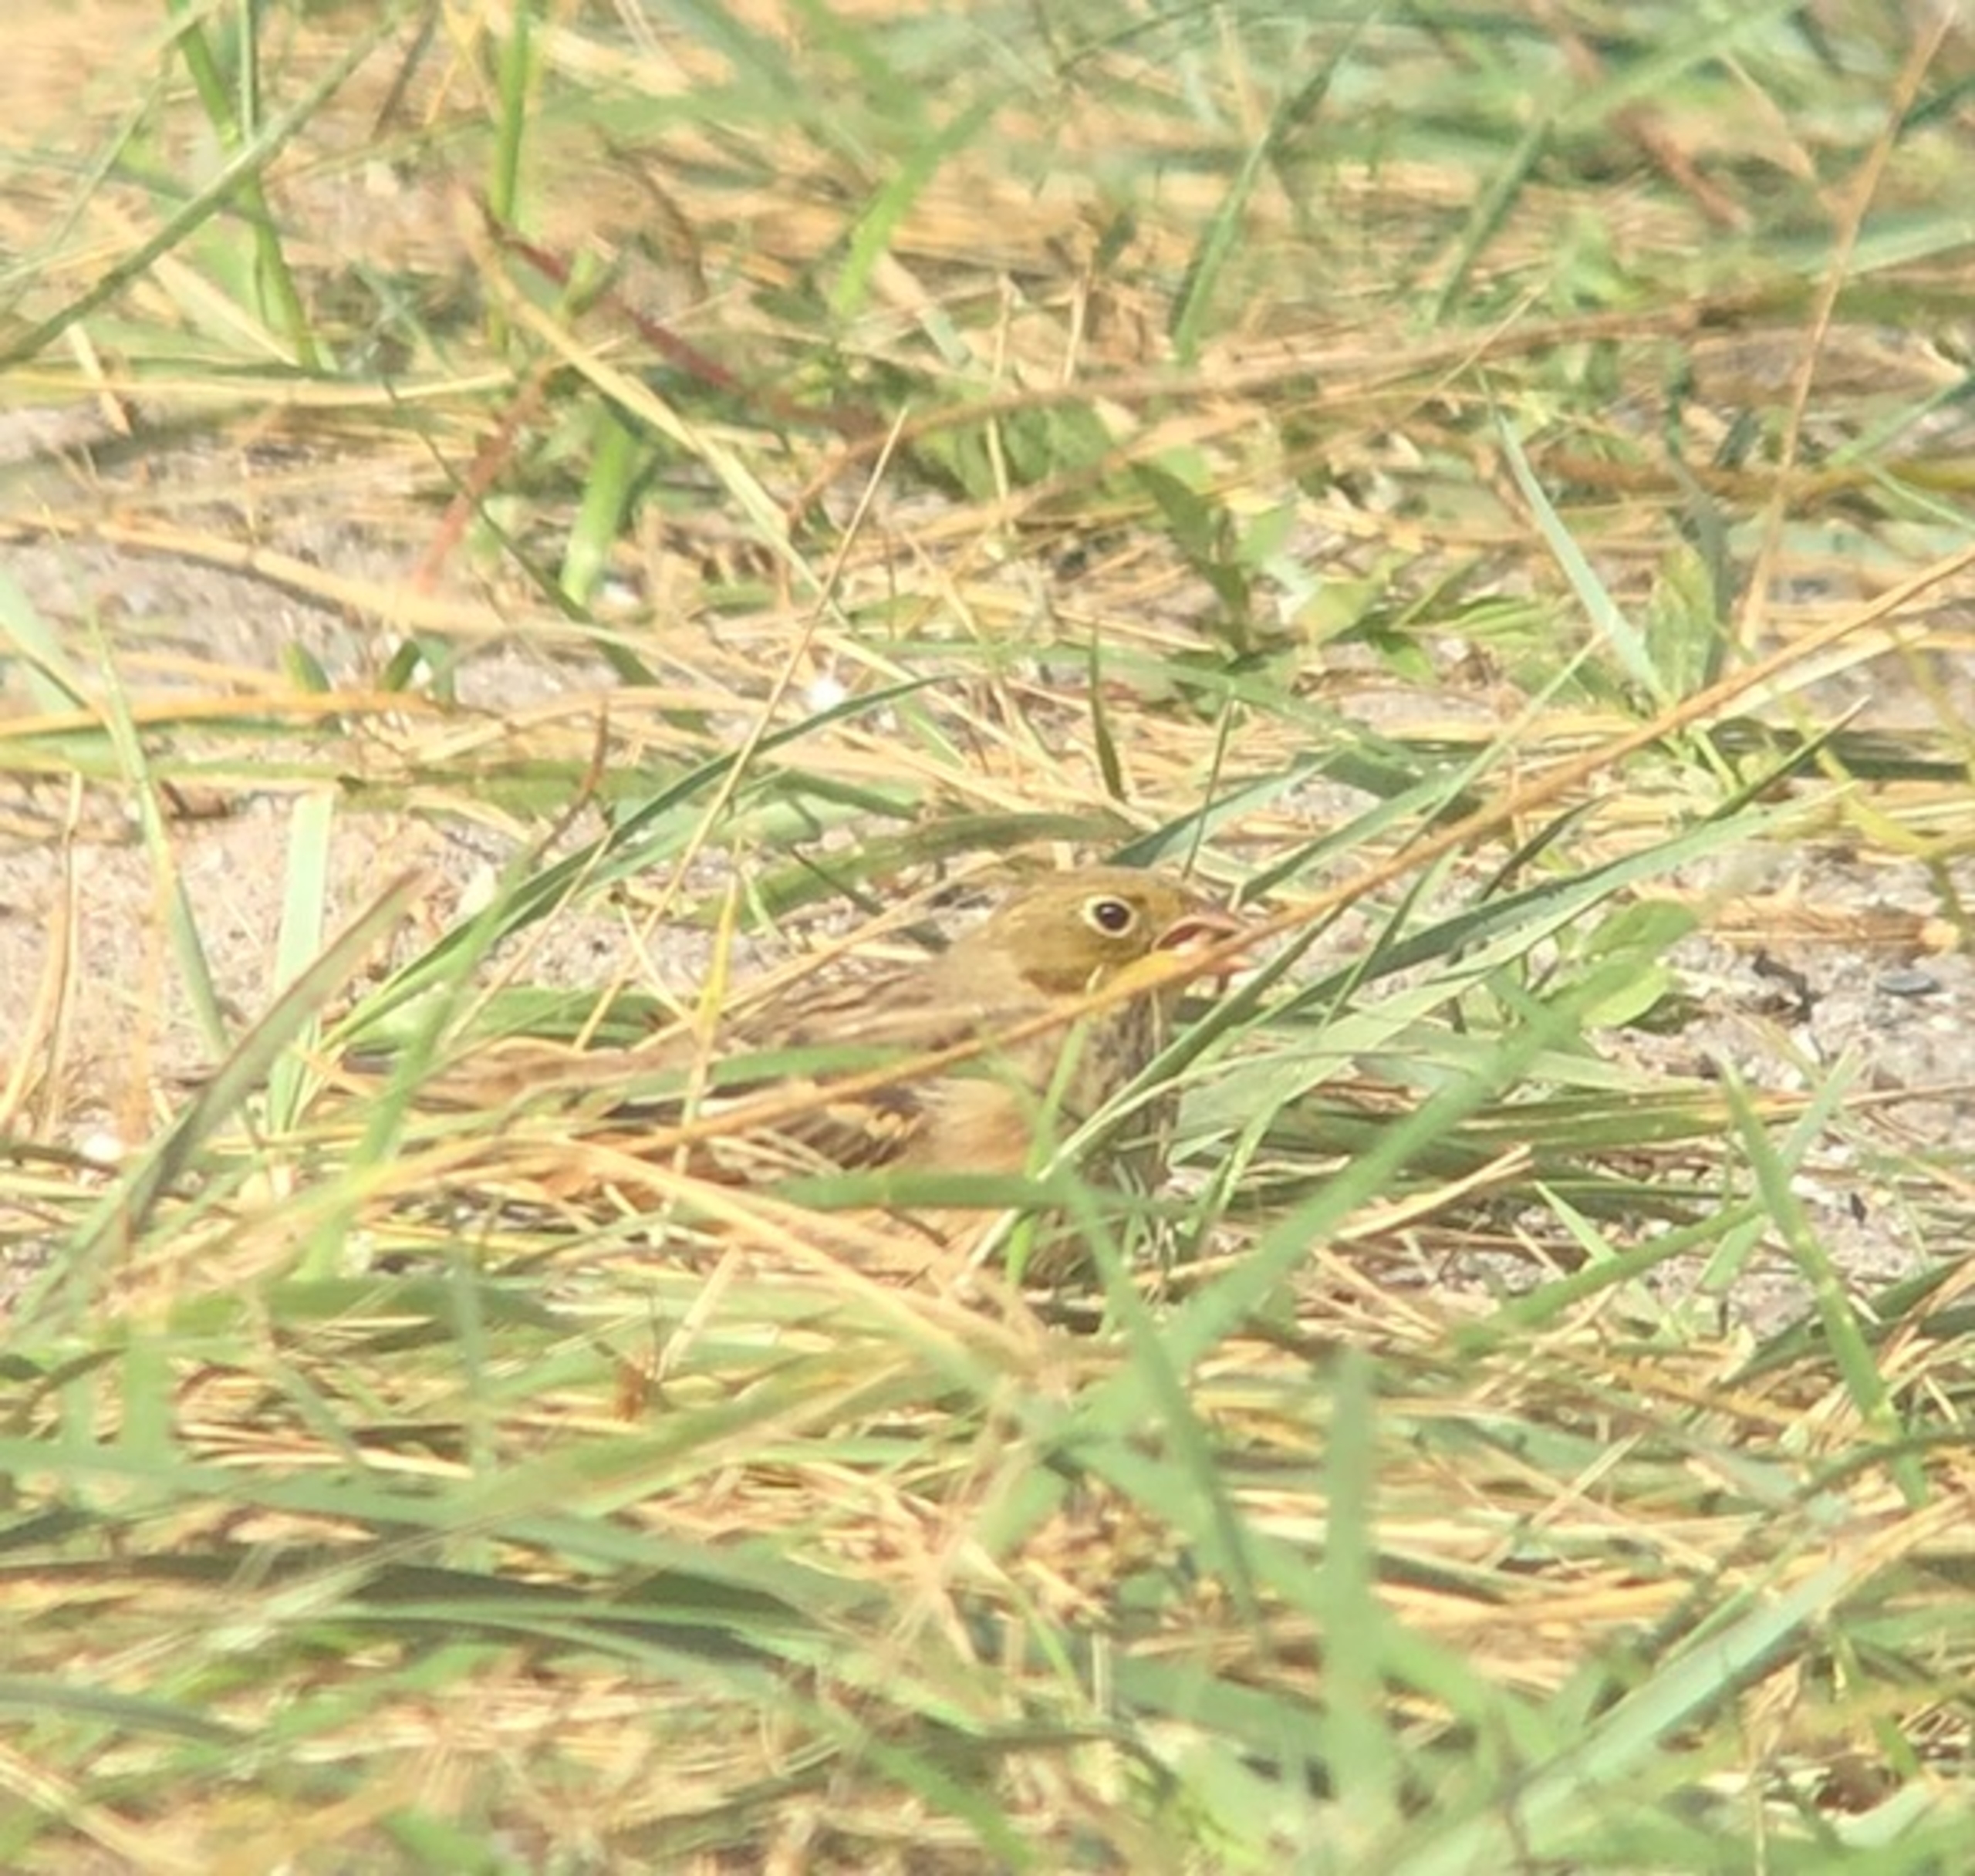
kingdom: Animalia
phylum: Chordata
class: Aves
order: Passeriformes
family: Emberizidae
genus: Emberiza
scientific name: Emberiza hortulana
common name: Hortulan
